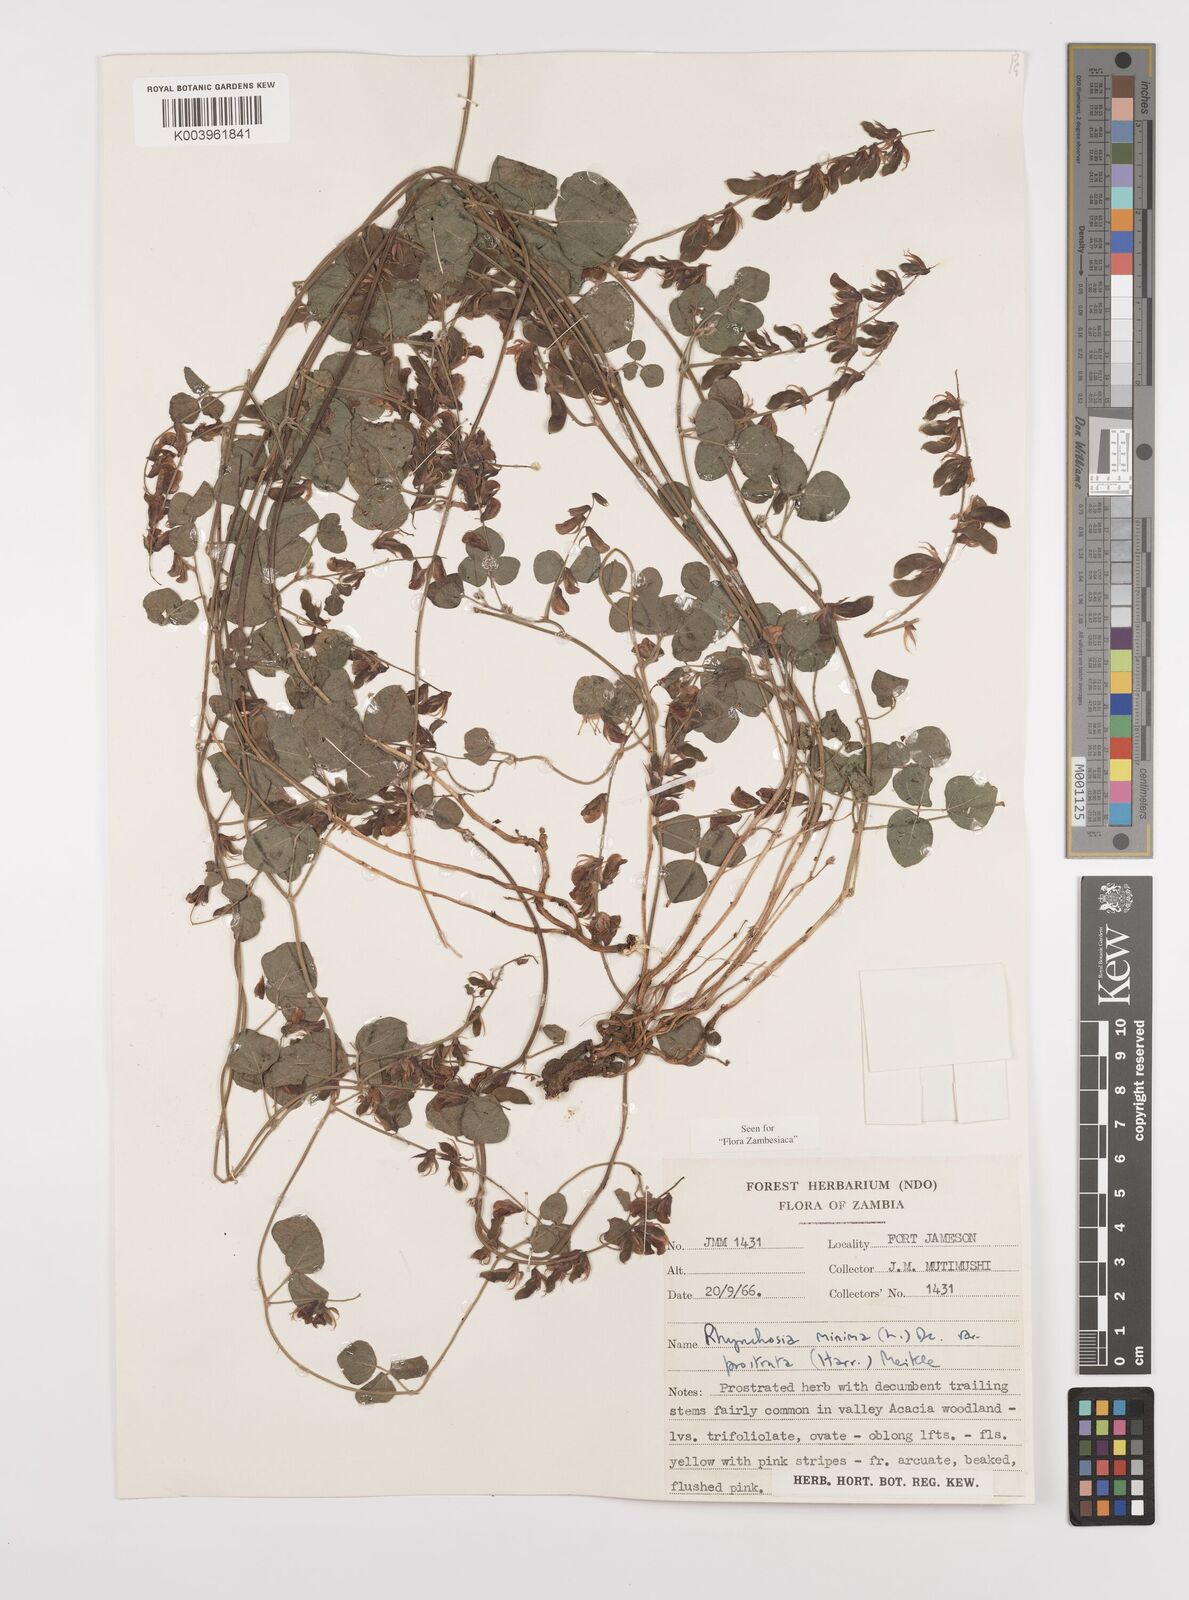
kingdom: Plantae
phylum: Tracheophyta
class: Magnoliopsida
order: Fabales
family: Fabaceae
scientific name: Fabaceae
